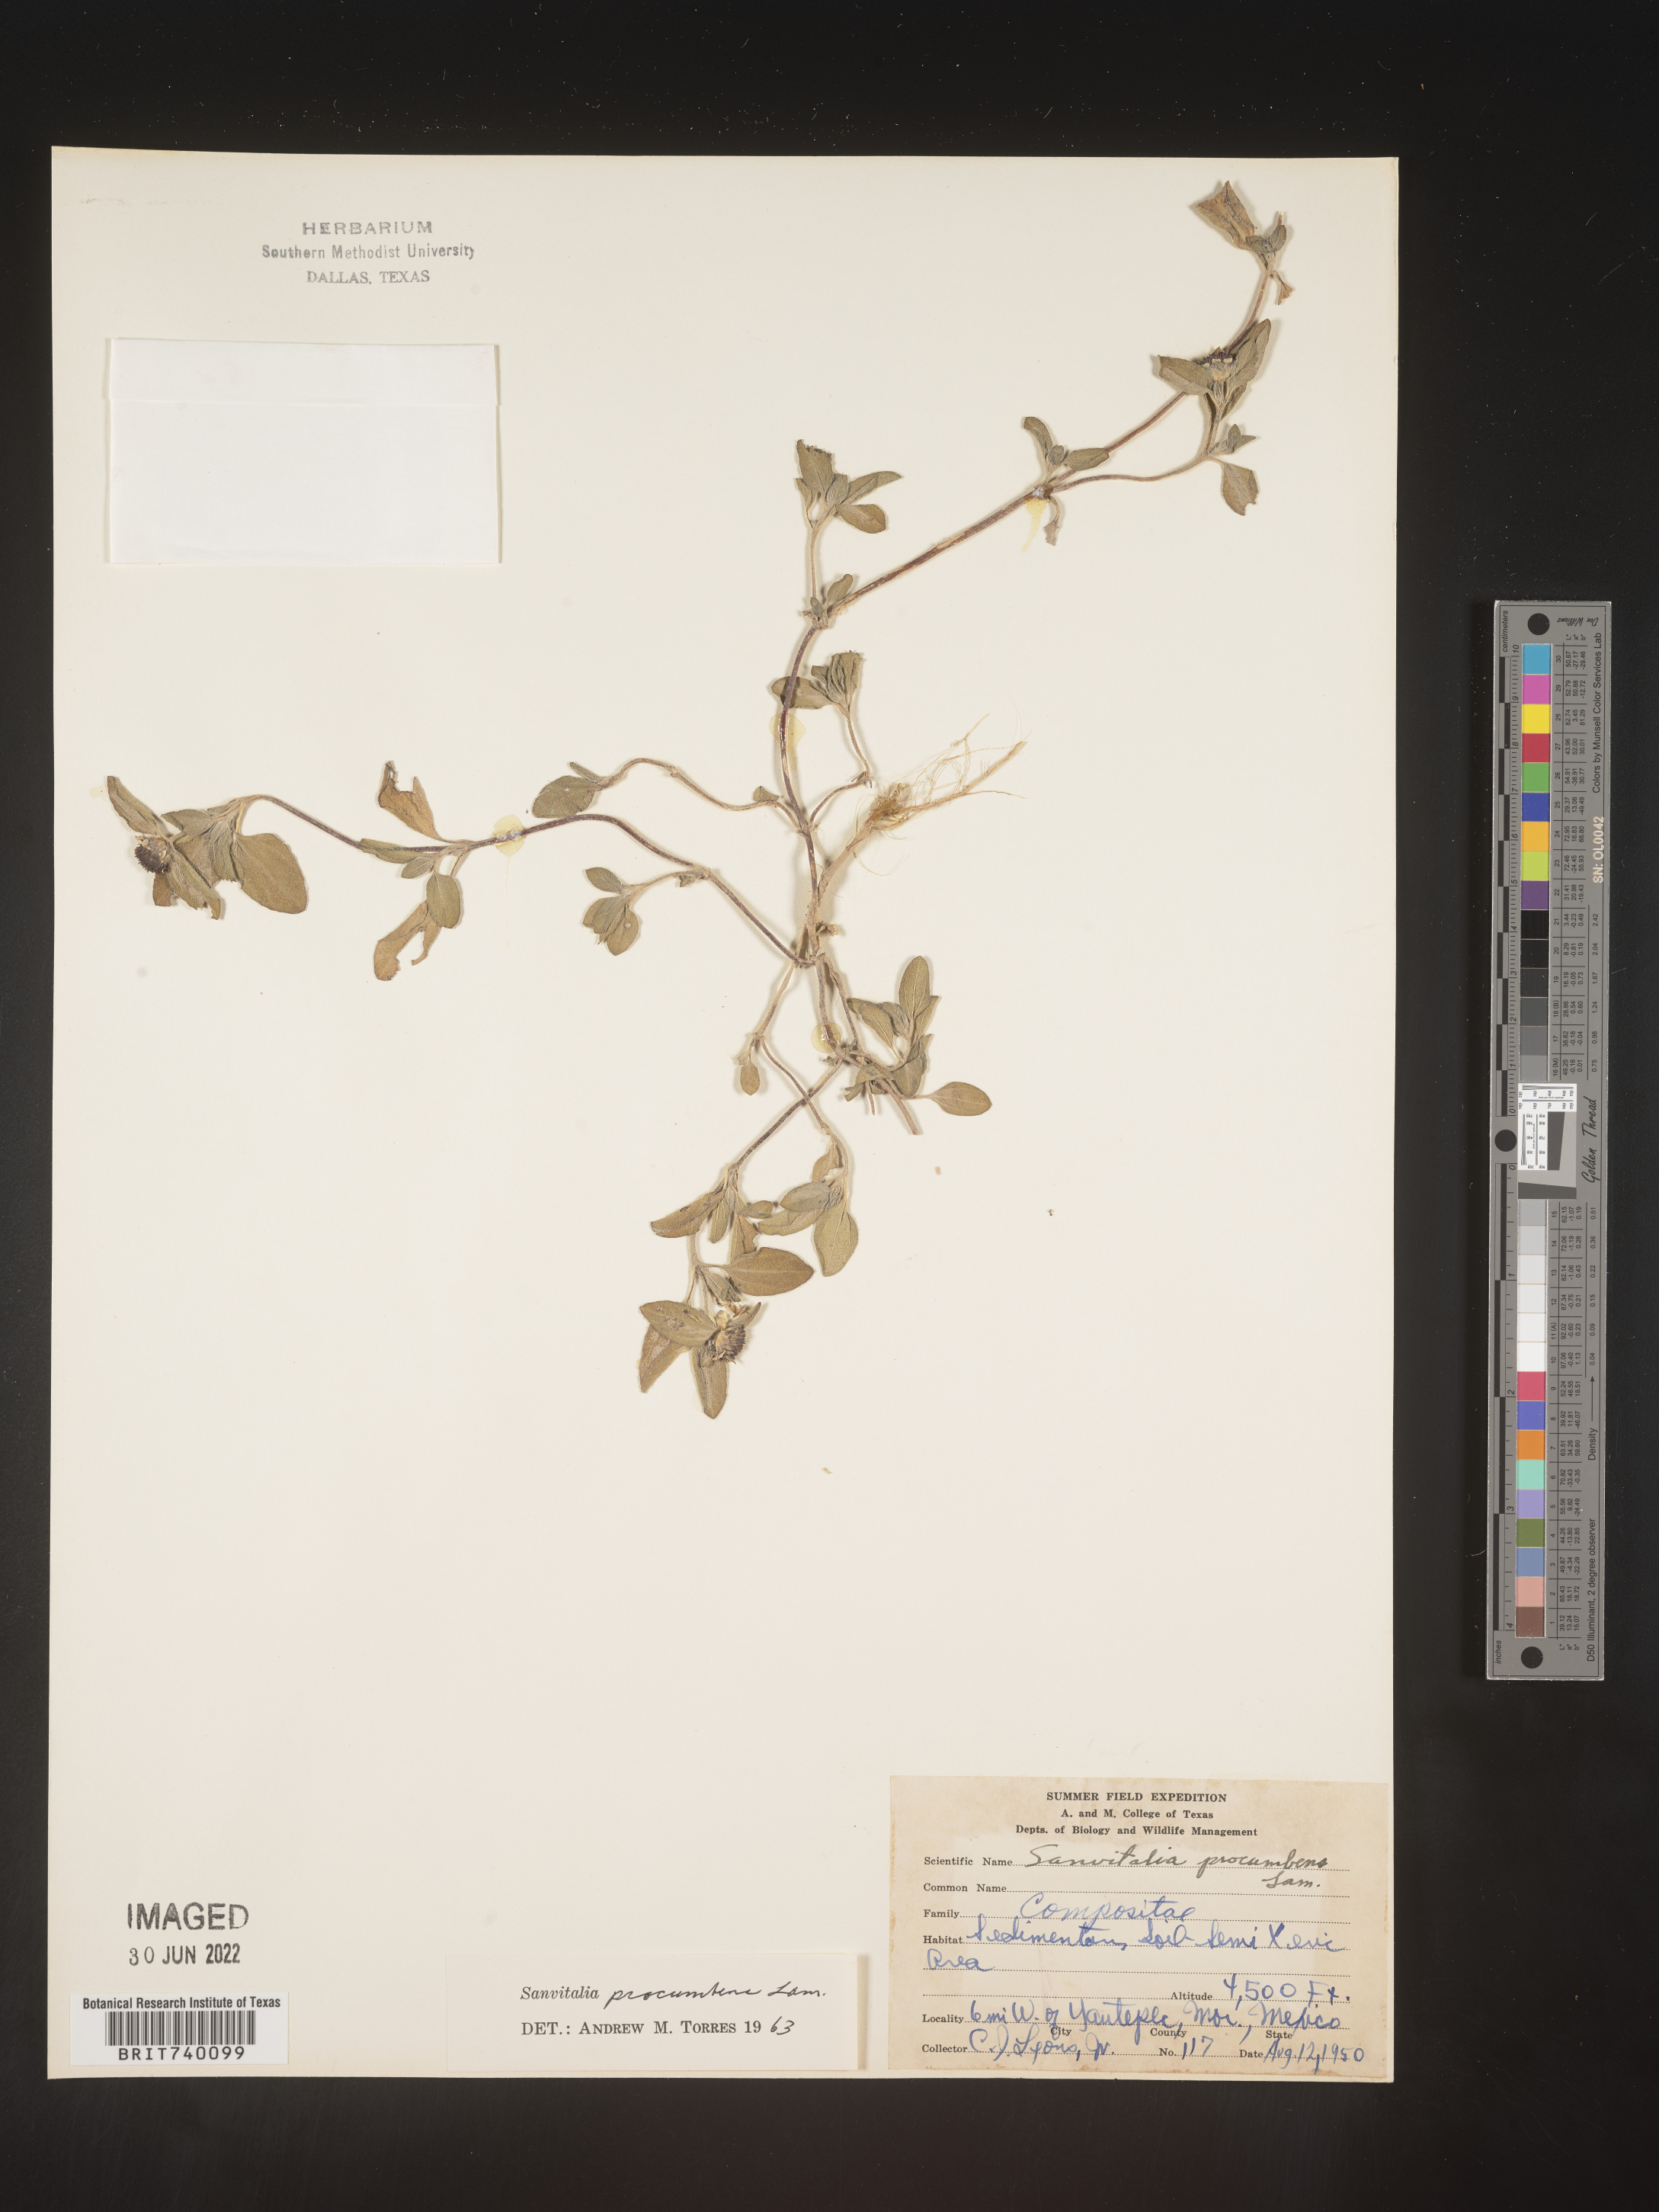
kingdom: Plantae
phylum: Tracheophyta
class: Magnoliopsida
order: Asterales
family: Asteraceae
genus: Sanvitalia
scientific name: Sanvitalia
